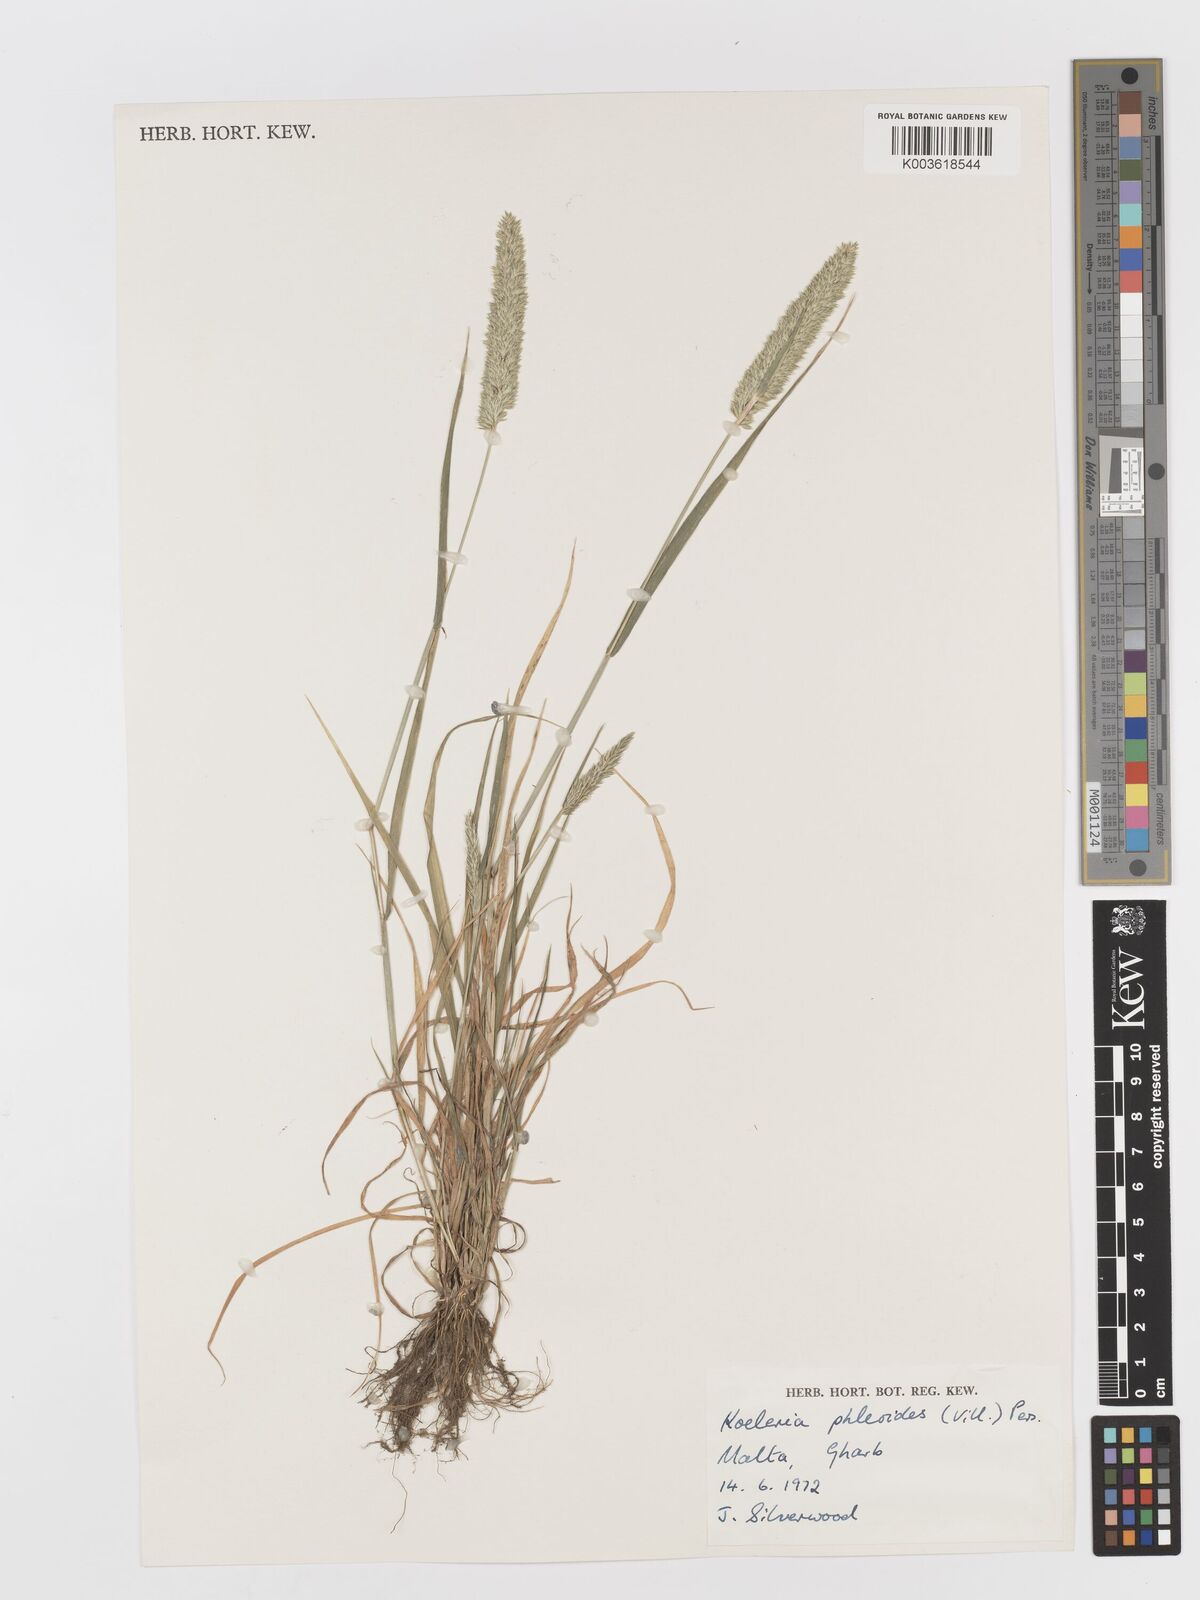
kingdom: Plantae
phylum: Tracheophyta
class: Liliopsida
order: Poales
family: Poaceae
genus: Rostraria
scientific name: Rostraria cristata
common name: Mediterranean hair-grass
